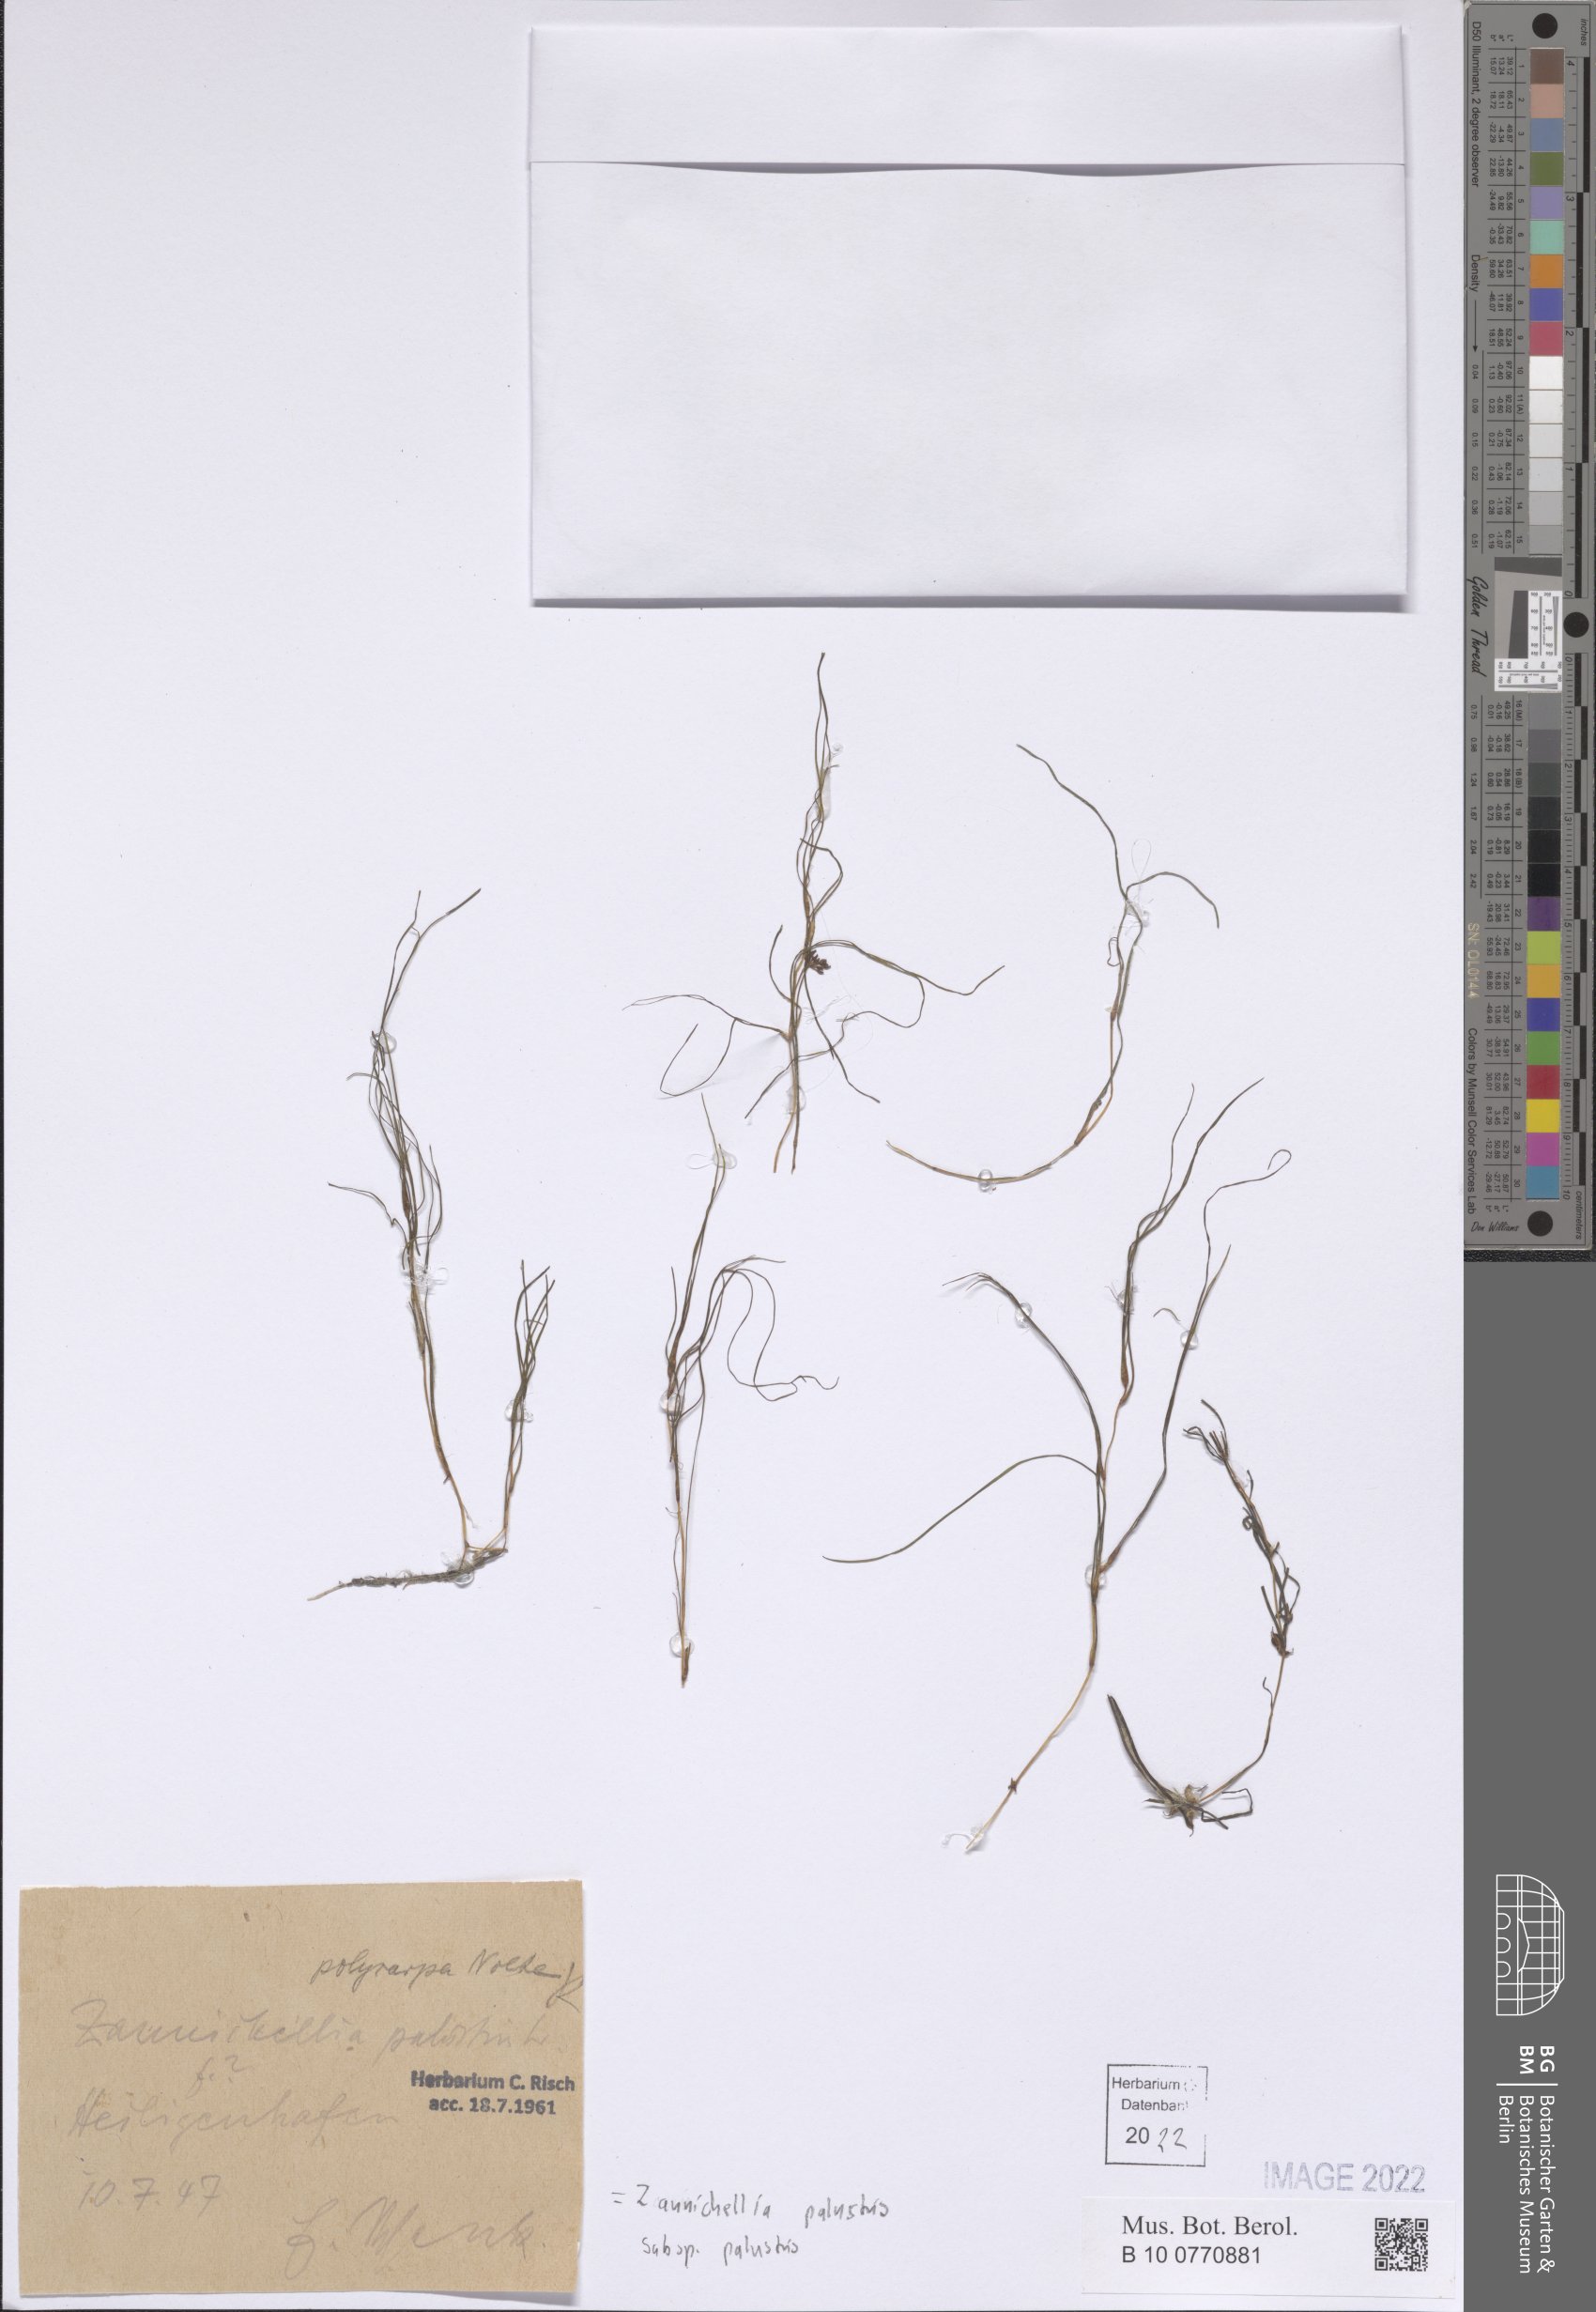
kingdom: Plantae
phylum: Tracheophyta
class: Liliopsida
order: Alismatales
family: Potamogetonaceae
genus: Zannichellia
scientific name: Zannichellia palustris
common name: Horned pondweed
